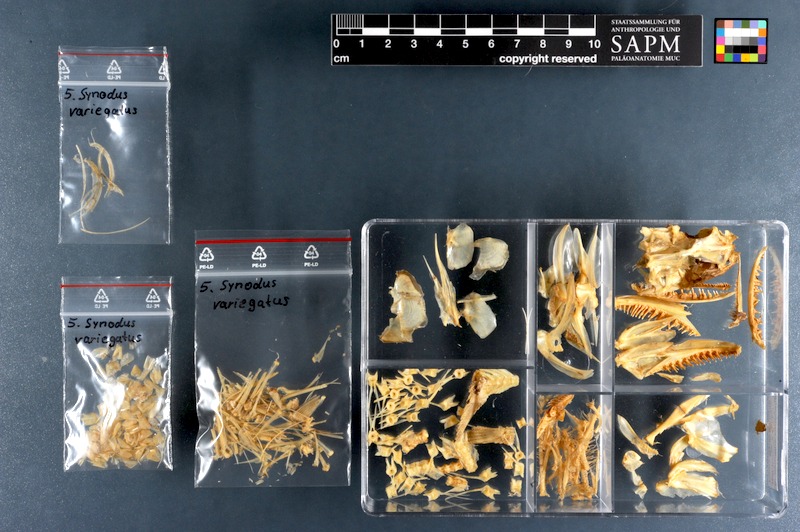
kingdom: Animalia
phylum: Chordata
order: Aulopiformes
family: Synodontidae
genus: Synodus
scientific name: Synodus variegatus
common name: Variegated lizardfish
